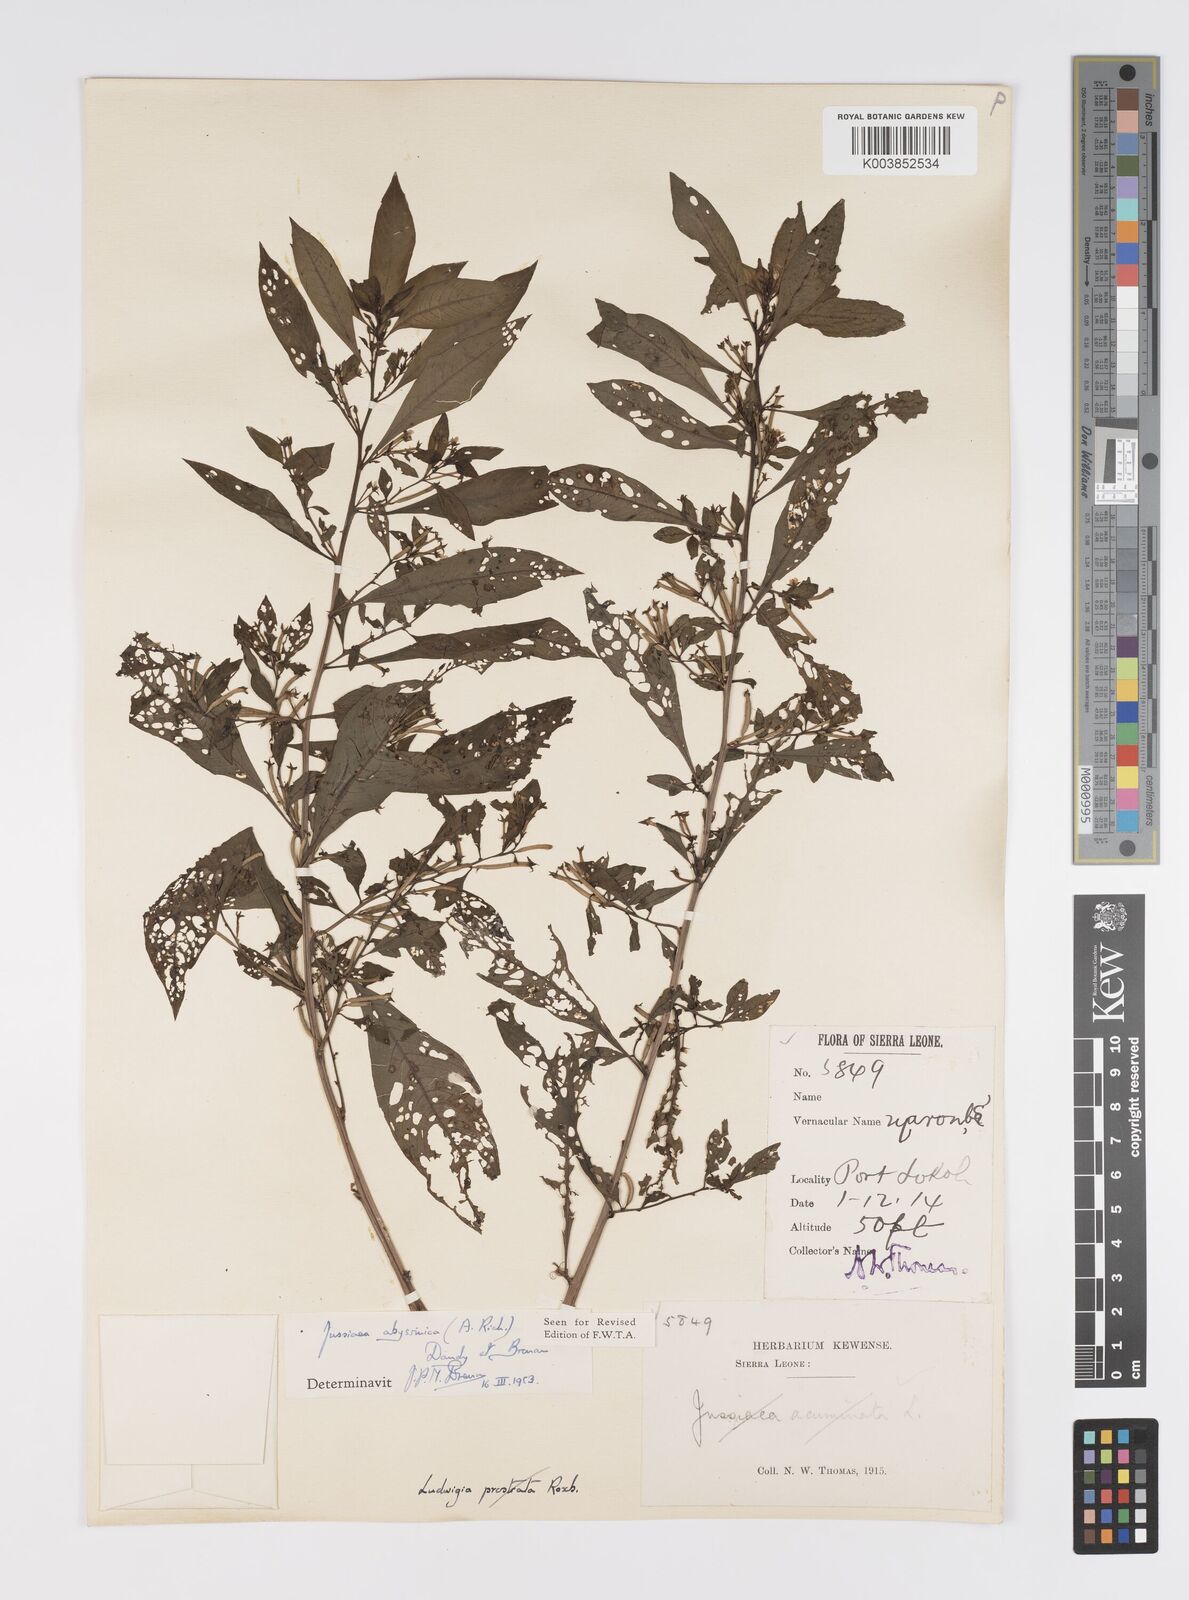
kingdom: Plantae
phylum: Tracheophyta
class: Magnoliopsida
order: Myrtales
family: Onagraceae
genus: Ludwigia
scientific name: Ludwigia abyssinica
